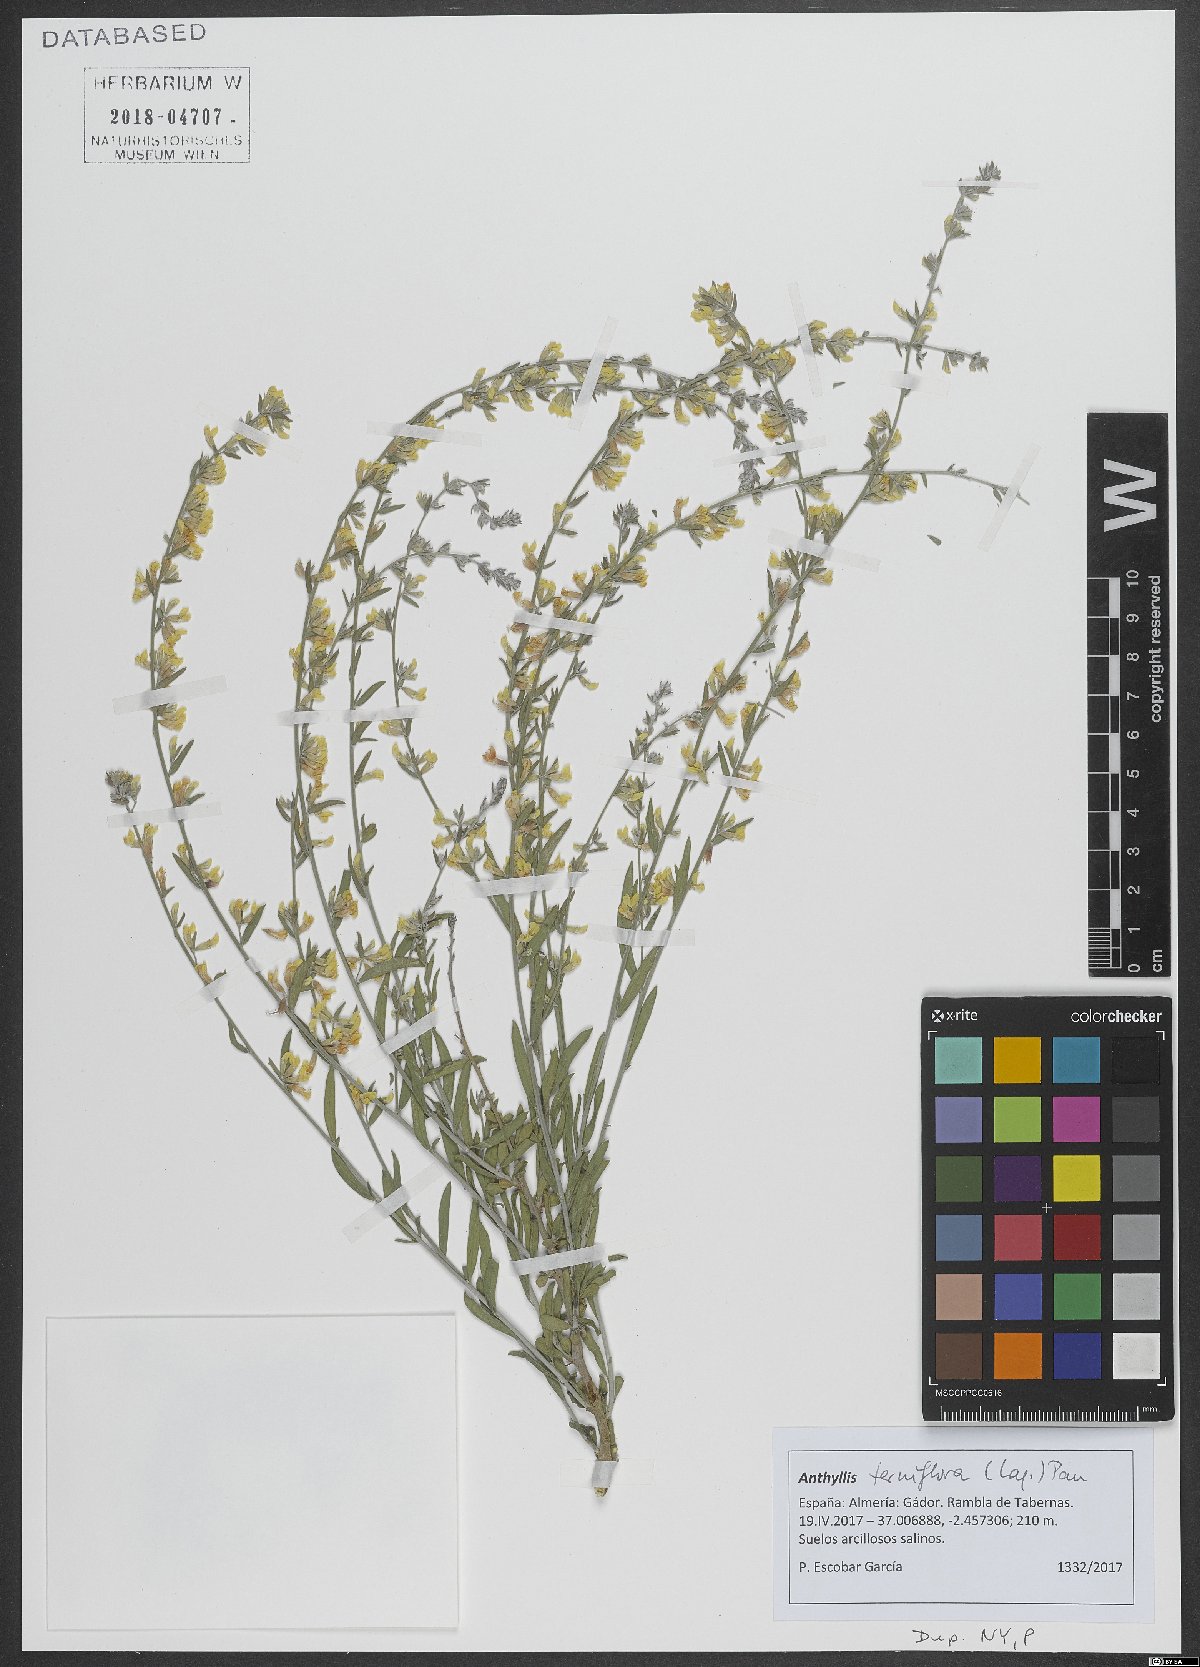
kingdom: Plantae
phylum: Tracheophyta
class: Magnoliopsida
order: Fabales
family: Fabaceae
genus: Anthyllis
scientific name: Anthyllis terniflora
